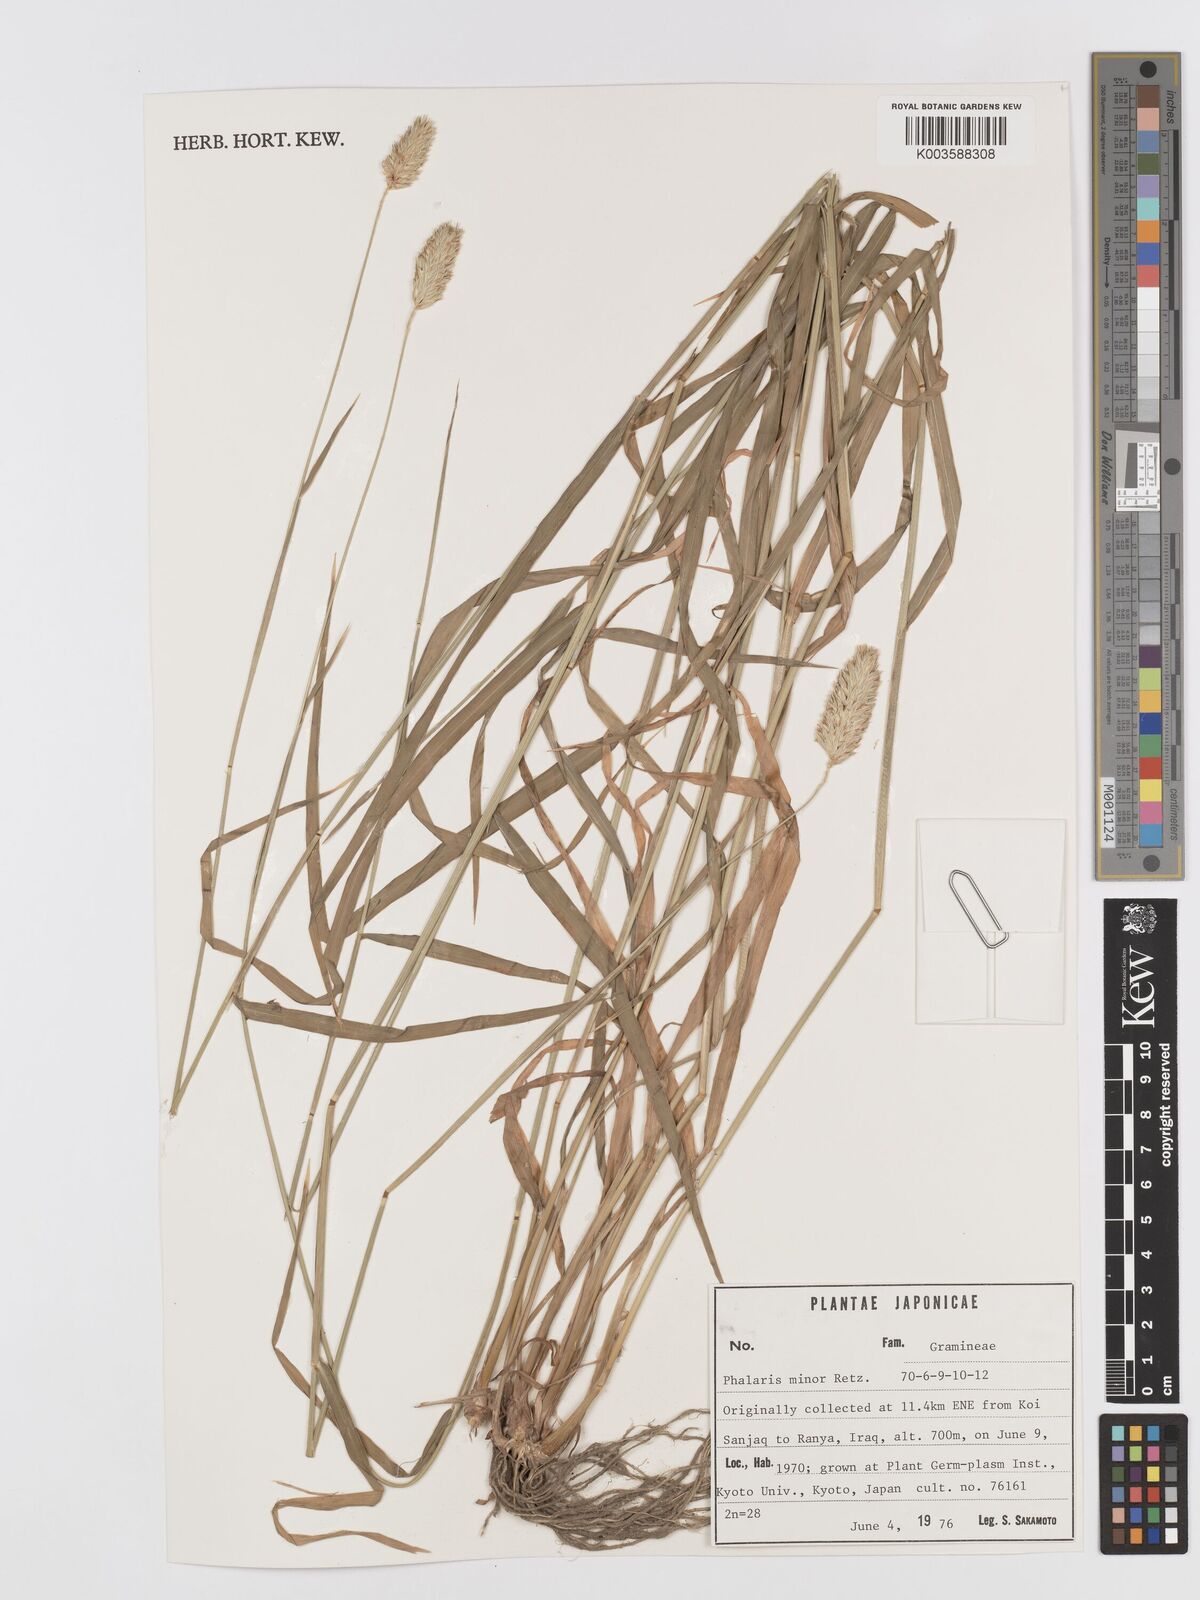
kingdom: Plantae
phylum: Tracheophyta
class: Liliopsida
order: Poales
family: Poaceae
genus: Phalaris
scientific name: Phalaris minor
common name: Littleseed canarygrass
